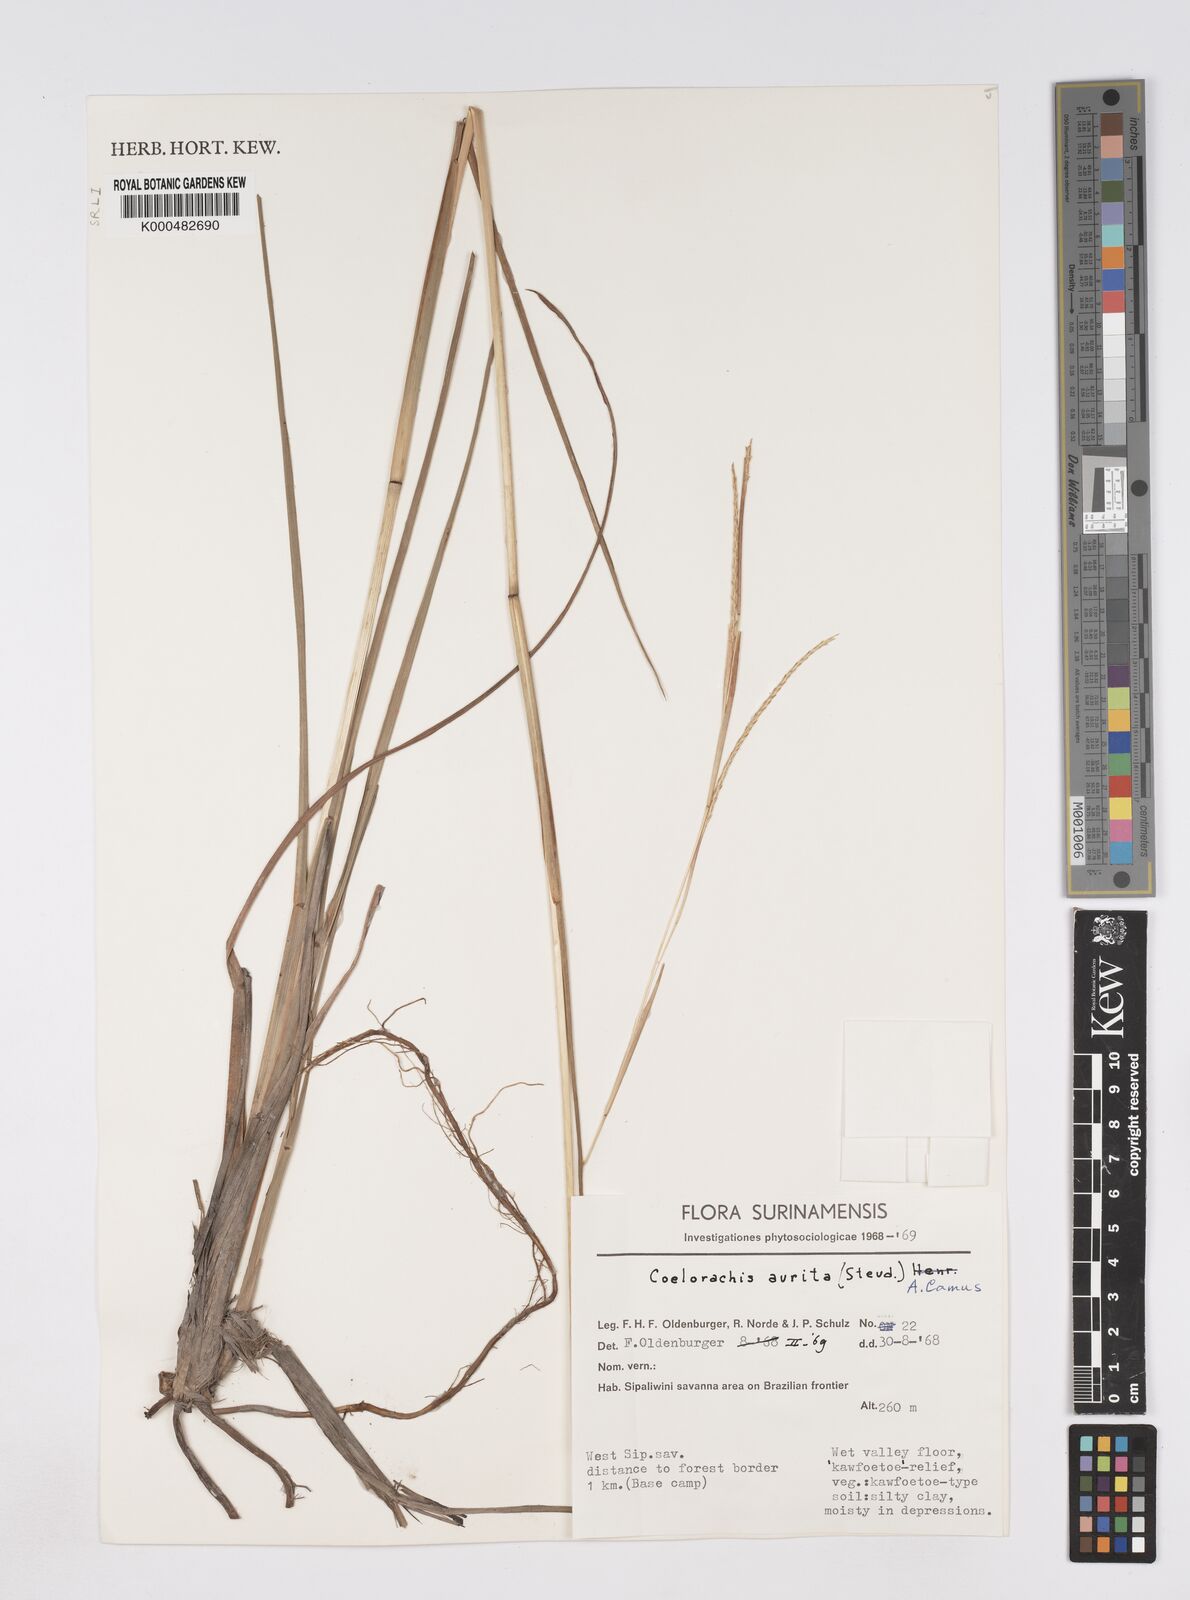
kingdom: Plantae
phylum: Tracheophyta
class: Liliopsida
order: Poales
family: Poaceae
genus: Rottboellia
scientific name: Rottboellia aurita
